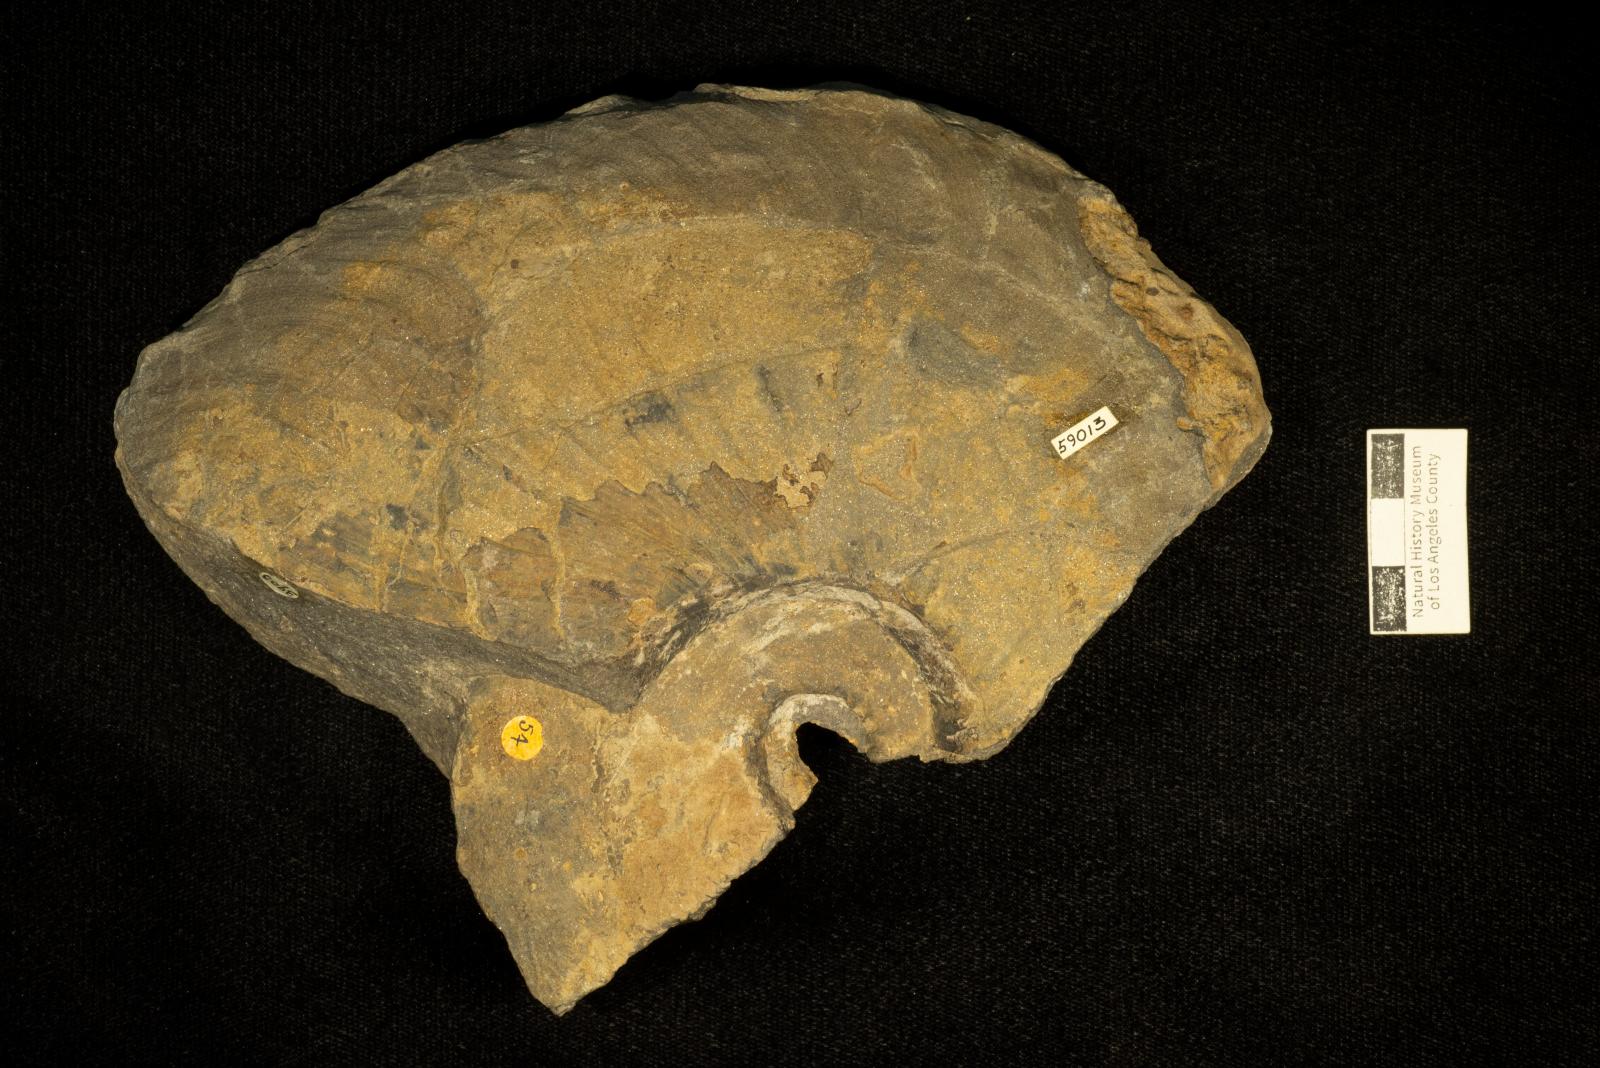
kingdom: Animalia
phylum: Mollusca
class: Cephalopoda
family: Placenticeratidae
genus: Metaplacenticeras
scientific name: Metaplacenticeras Placenticeras pacificum
